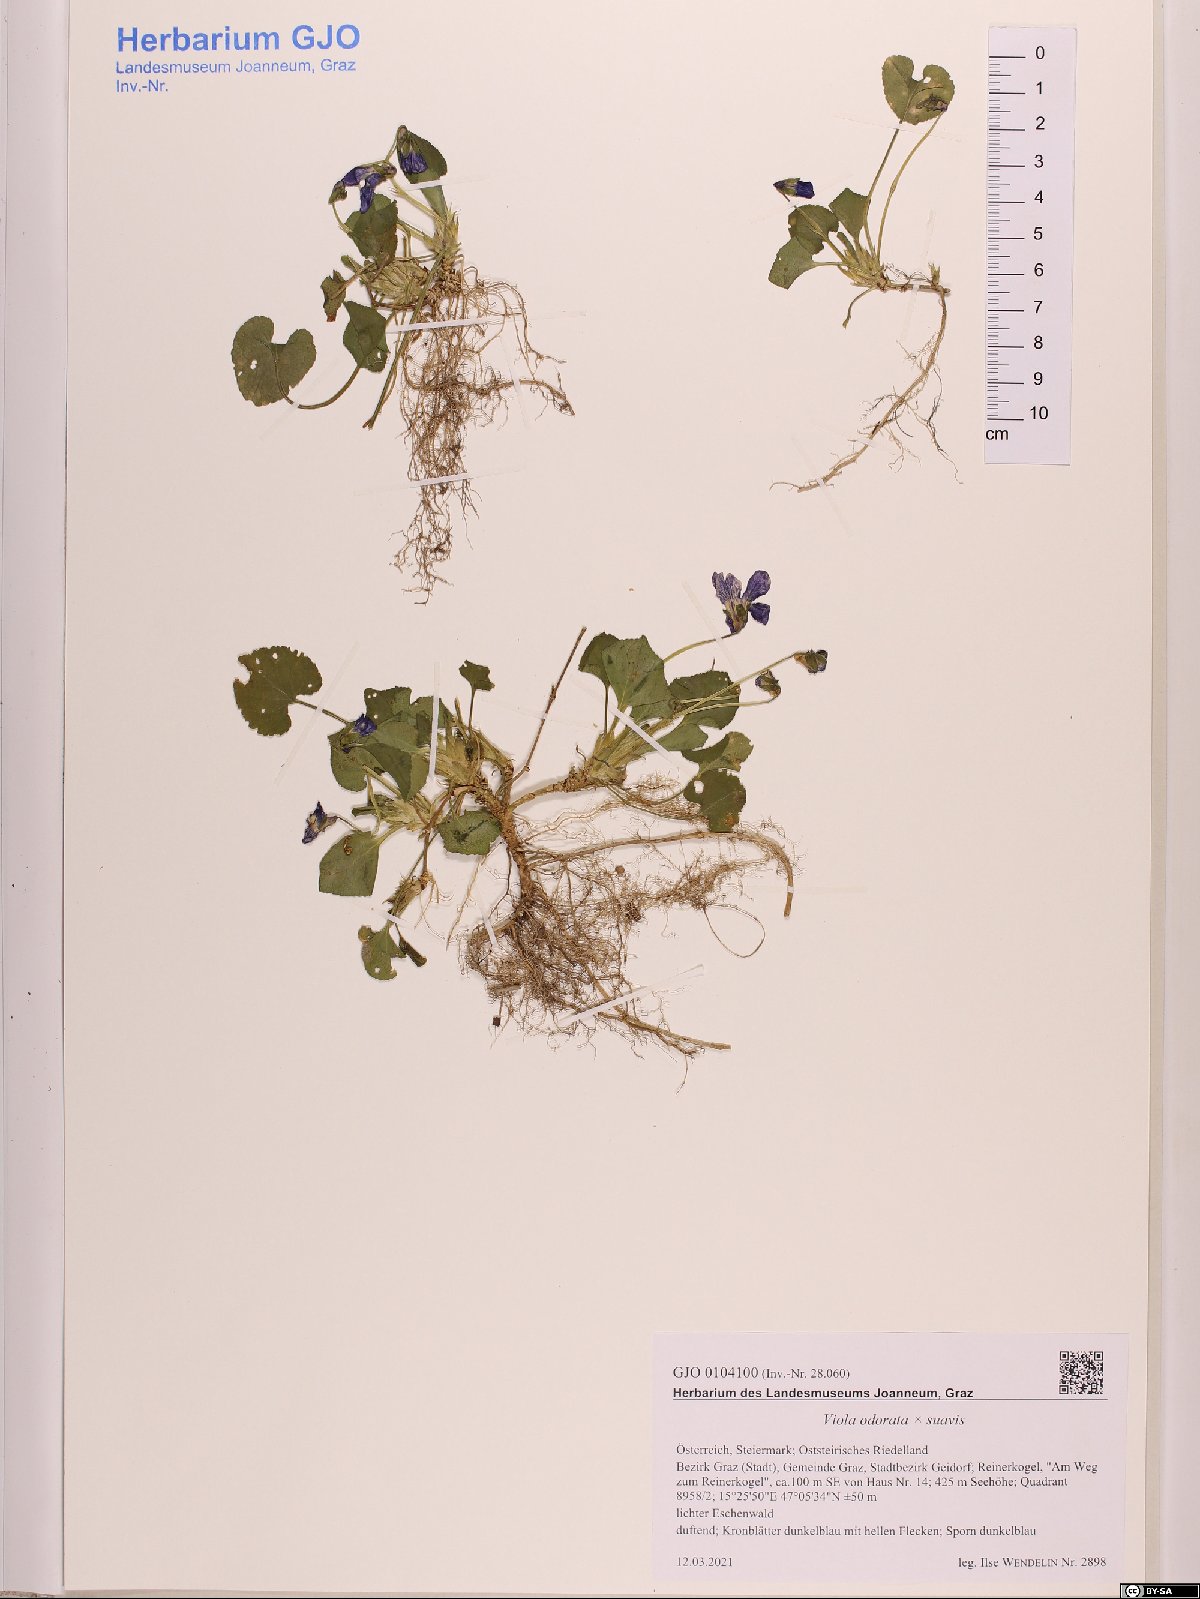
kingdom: Plantae
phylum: Tracheophyta
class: Magnoliopsida
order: Malpighiales
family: Violaceae
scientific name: Violaceae
